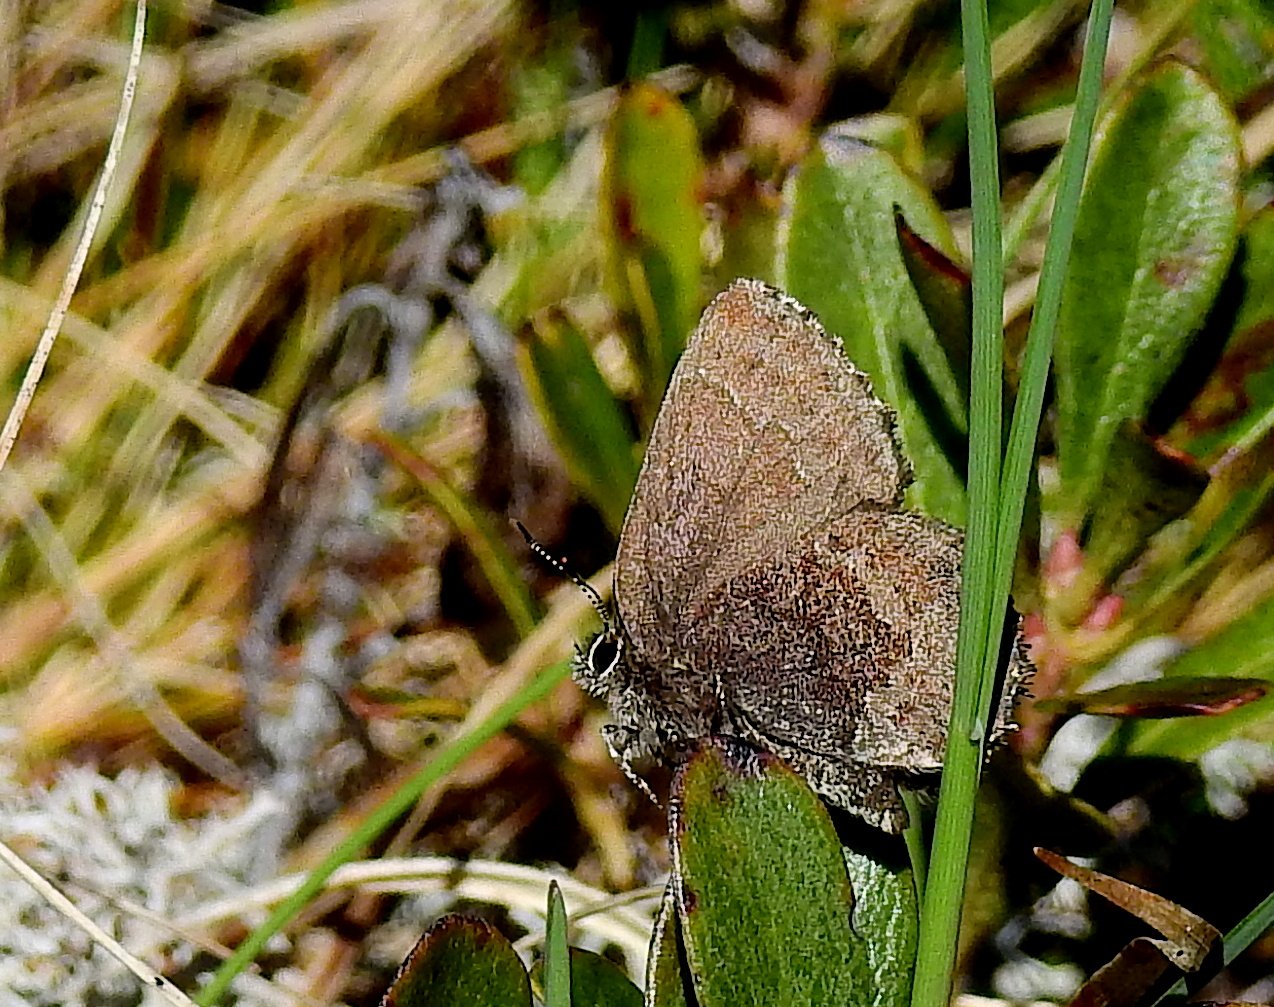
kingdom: Animalia
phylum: Arthropoda
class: Insecta
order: Lepidoptera
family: Lycaenidae
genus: Callophrys
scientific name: Callophrys polios
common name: Hoary Elfin
